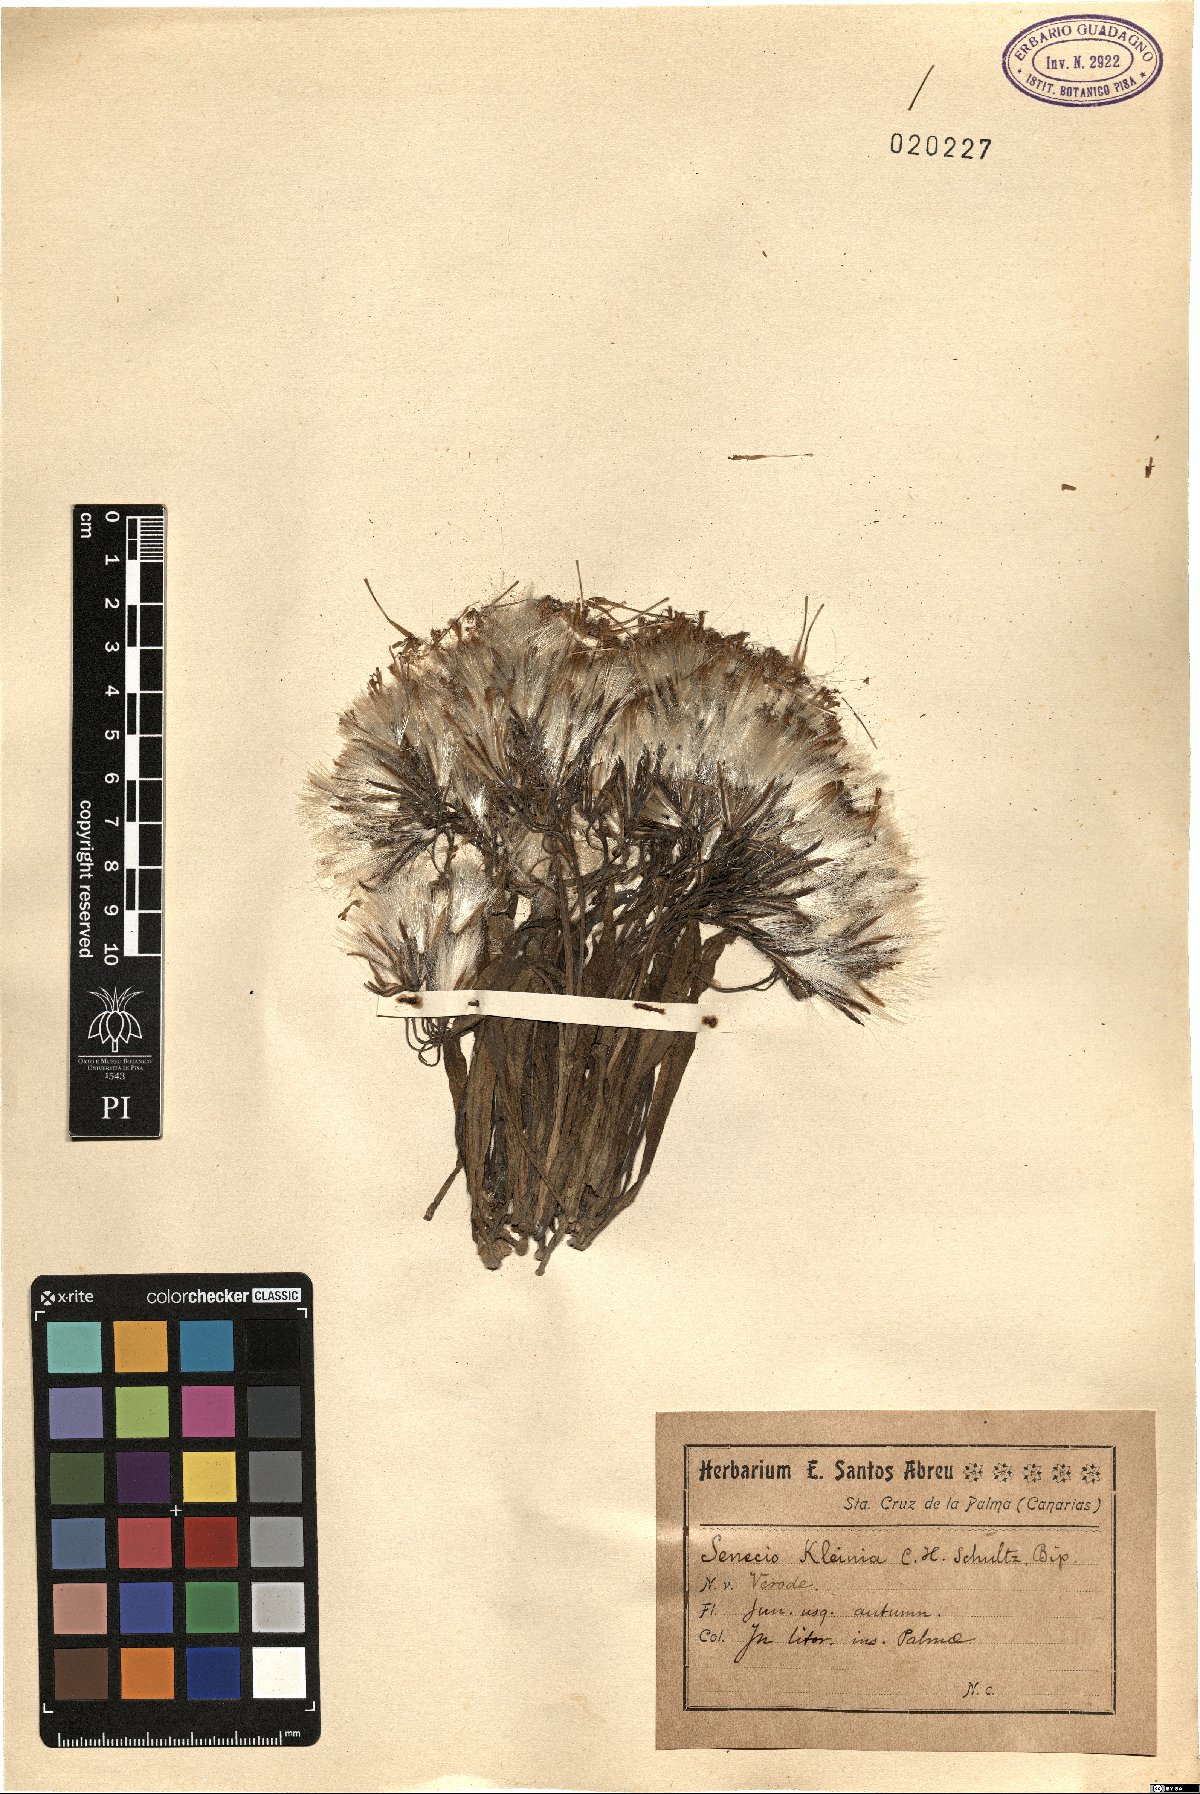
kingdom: Plantae
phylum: Tracheophyta
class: Magnoliopsida
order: Asterales
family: Asteraceae
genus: Kleinia
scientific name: Kleinia neriifolia
